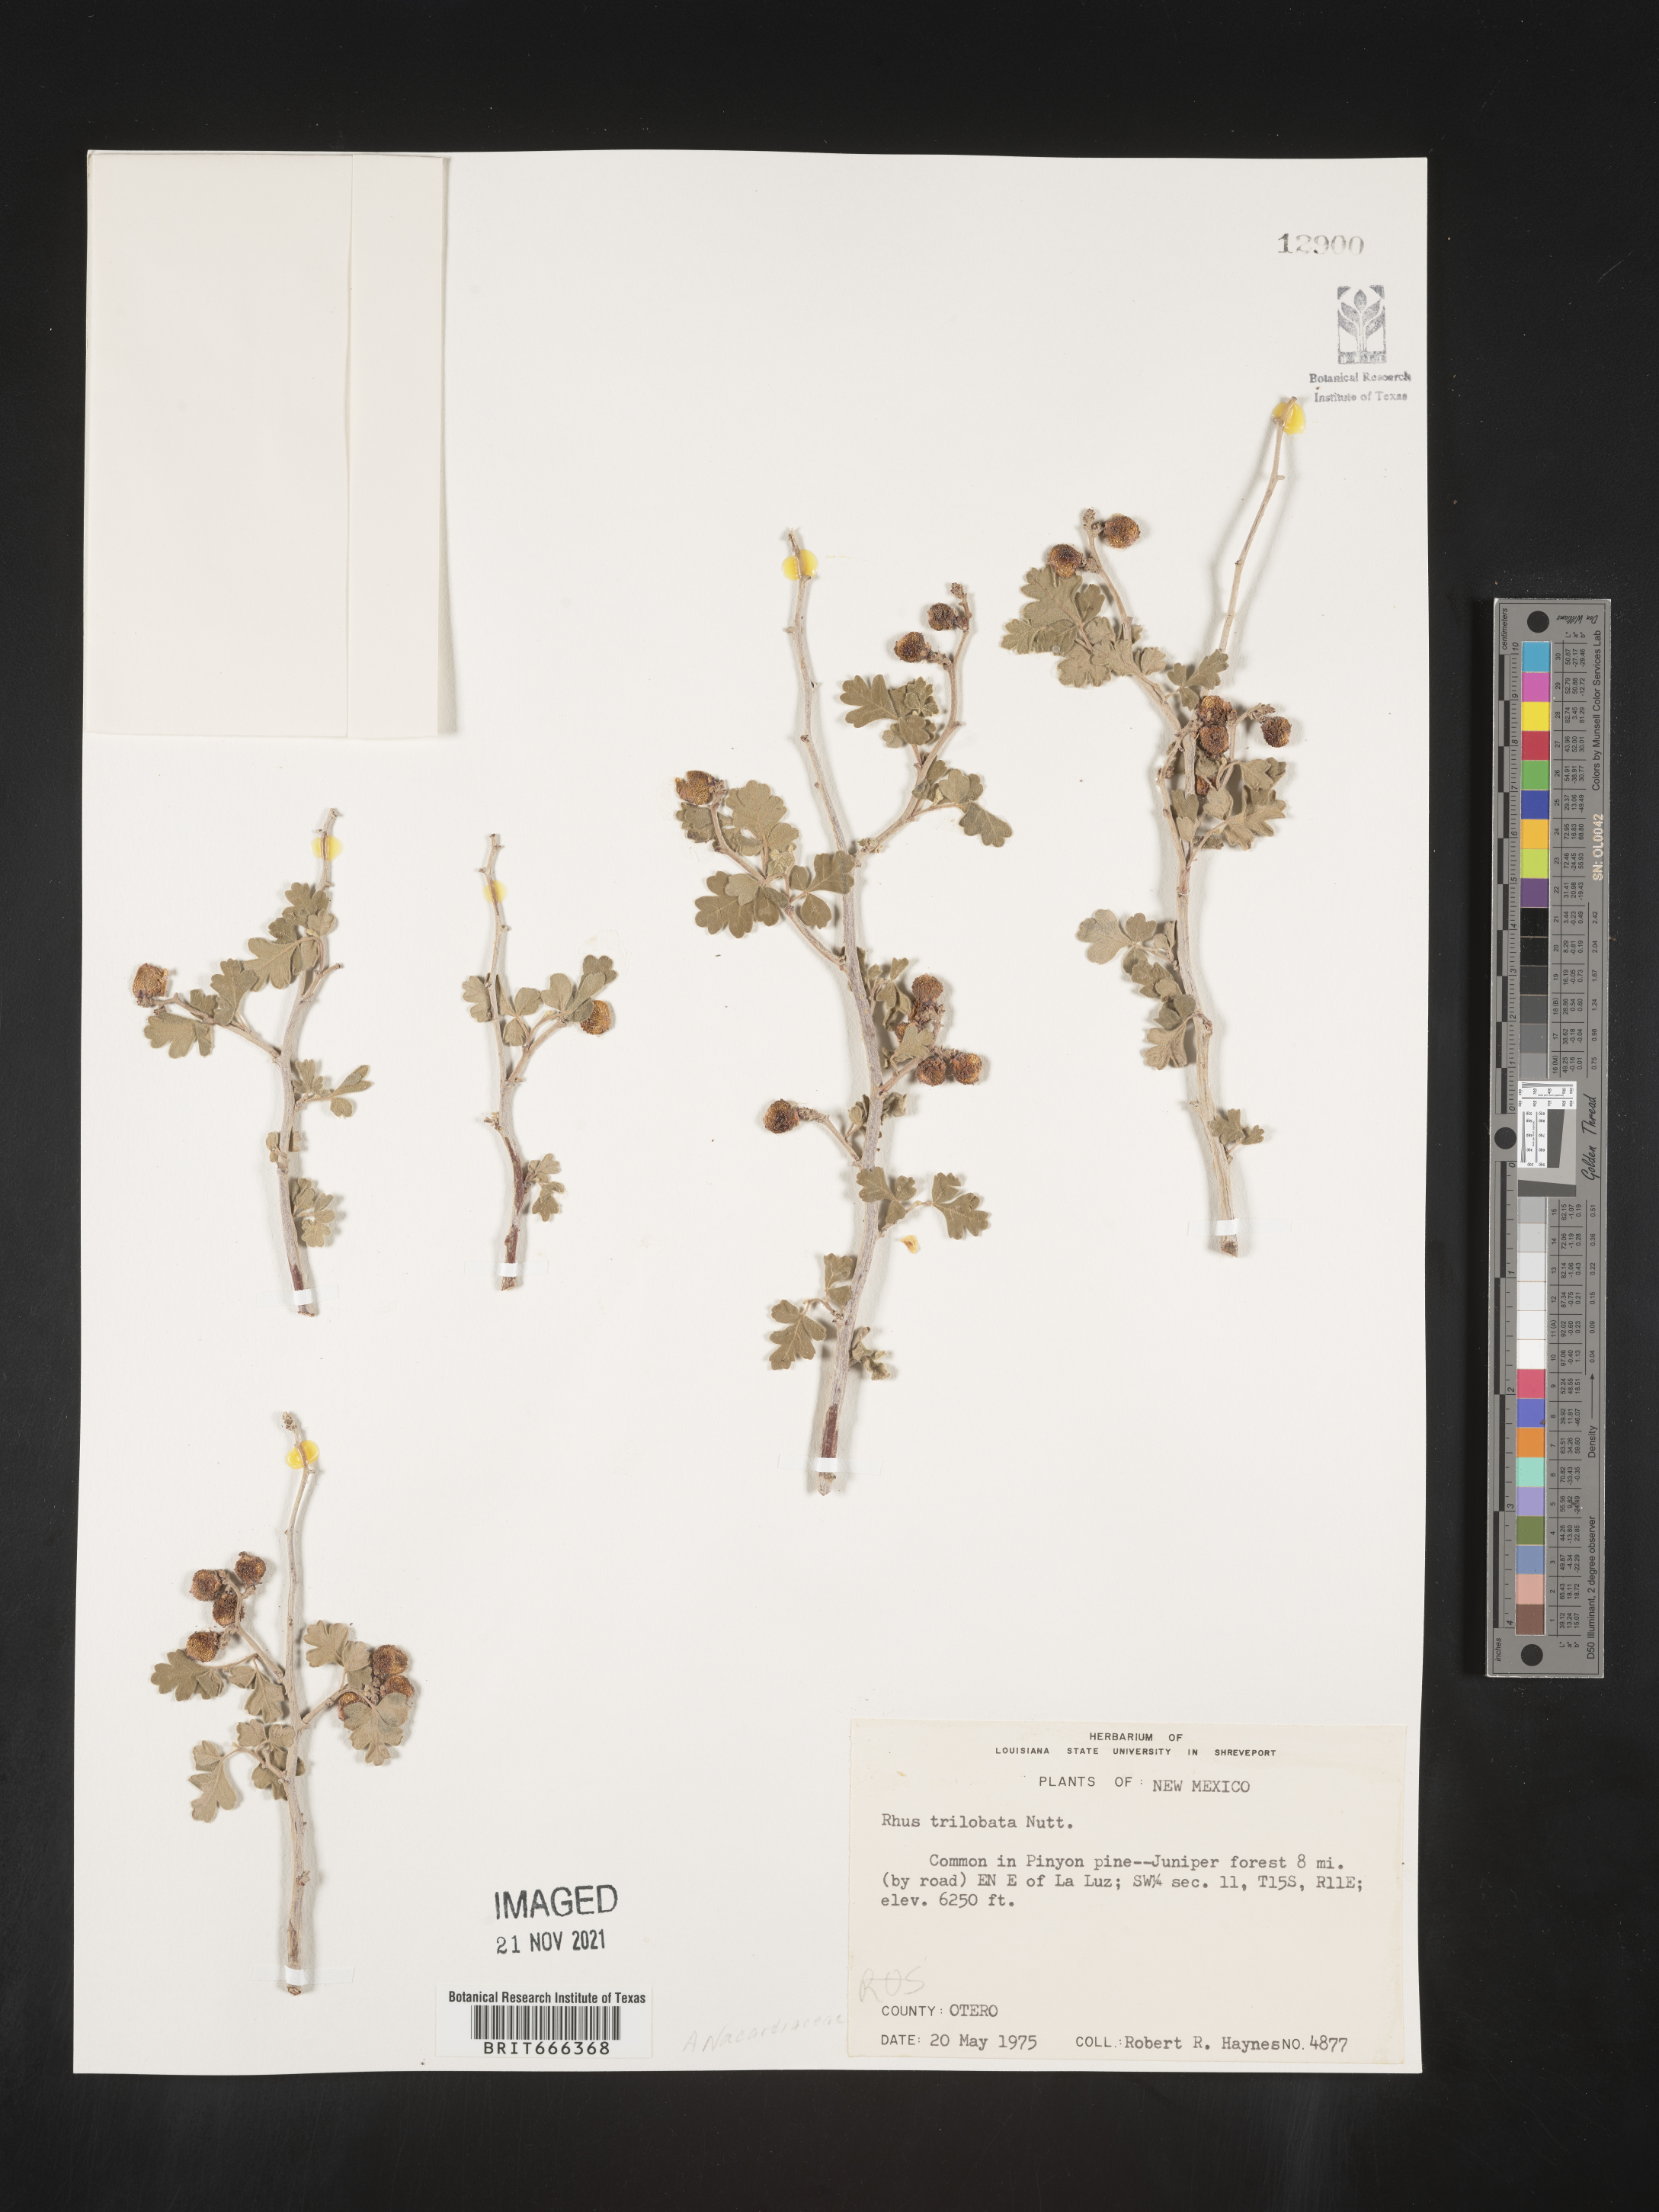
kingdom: Plantae
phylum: Tracheophyta
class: Magnoliopsida
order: Sapindales
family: Anacardiaceae
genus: Rhus
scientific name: Rhus trilobata
